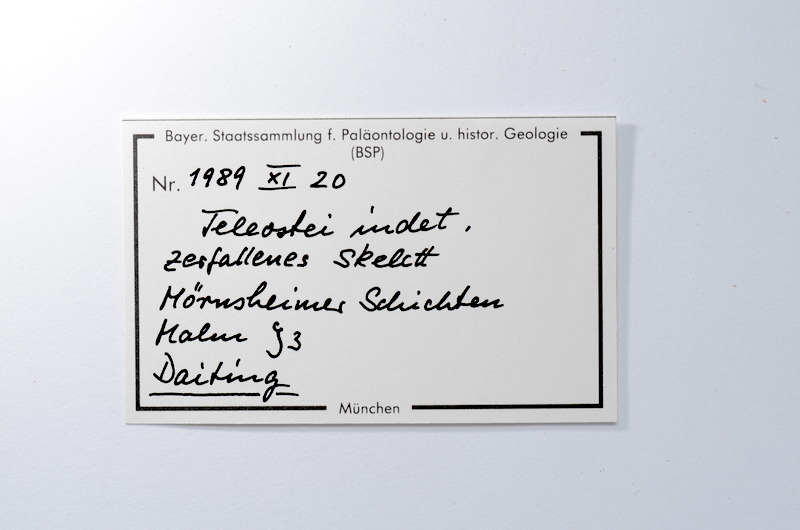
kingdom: Animalia
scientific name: Animalia
